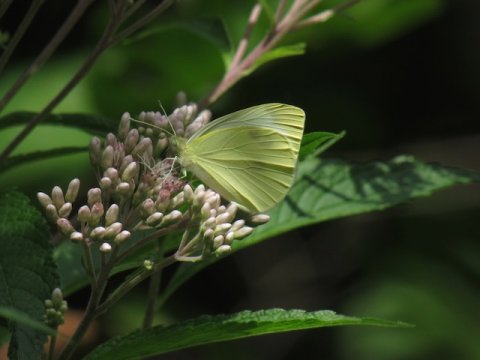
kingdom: Animalia
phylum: Arthropoda
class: Insecta
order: Lepidoptera
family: Pieridae
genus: Pieris
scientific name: Pieris rapae
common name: Cabbage White
